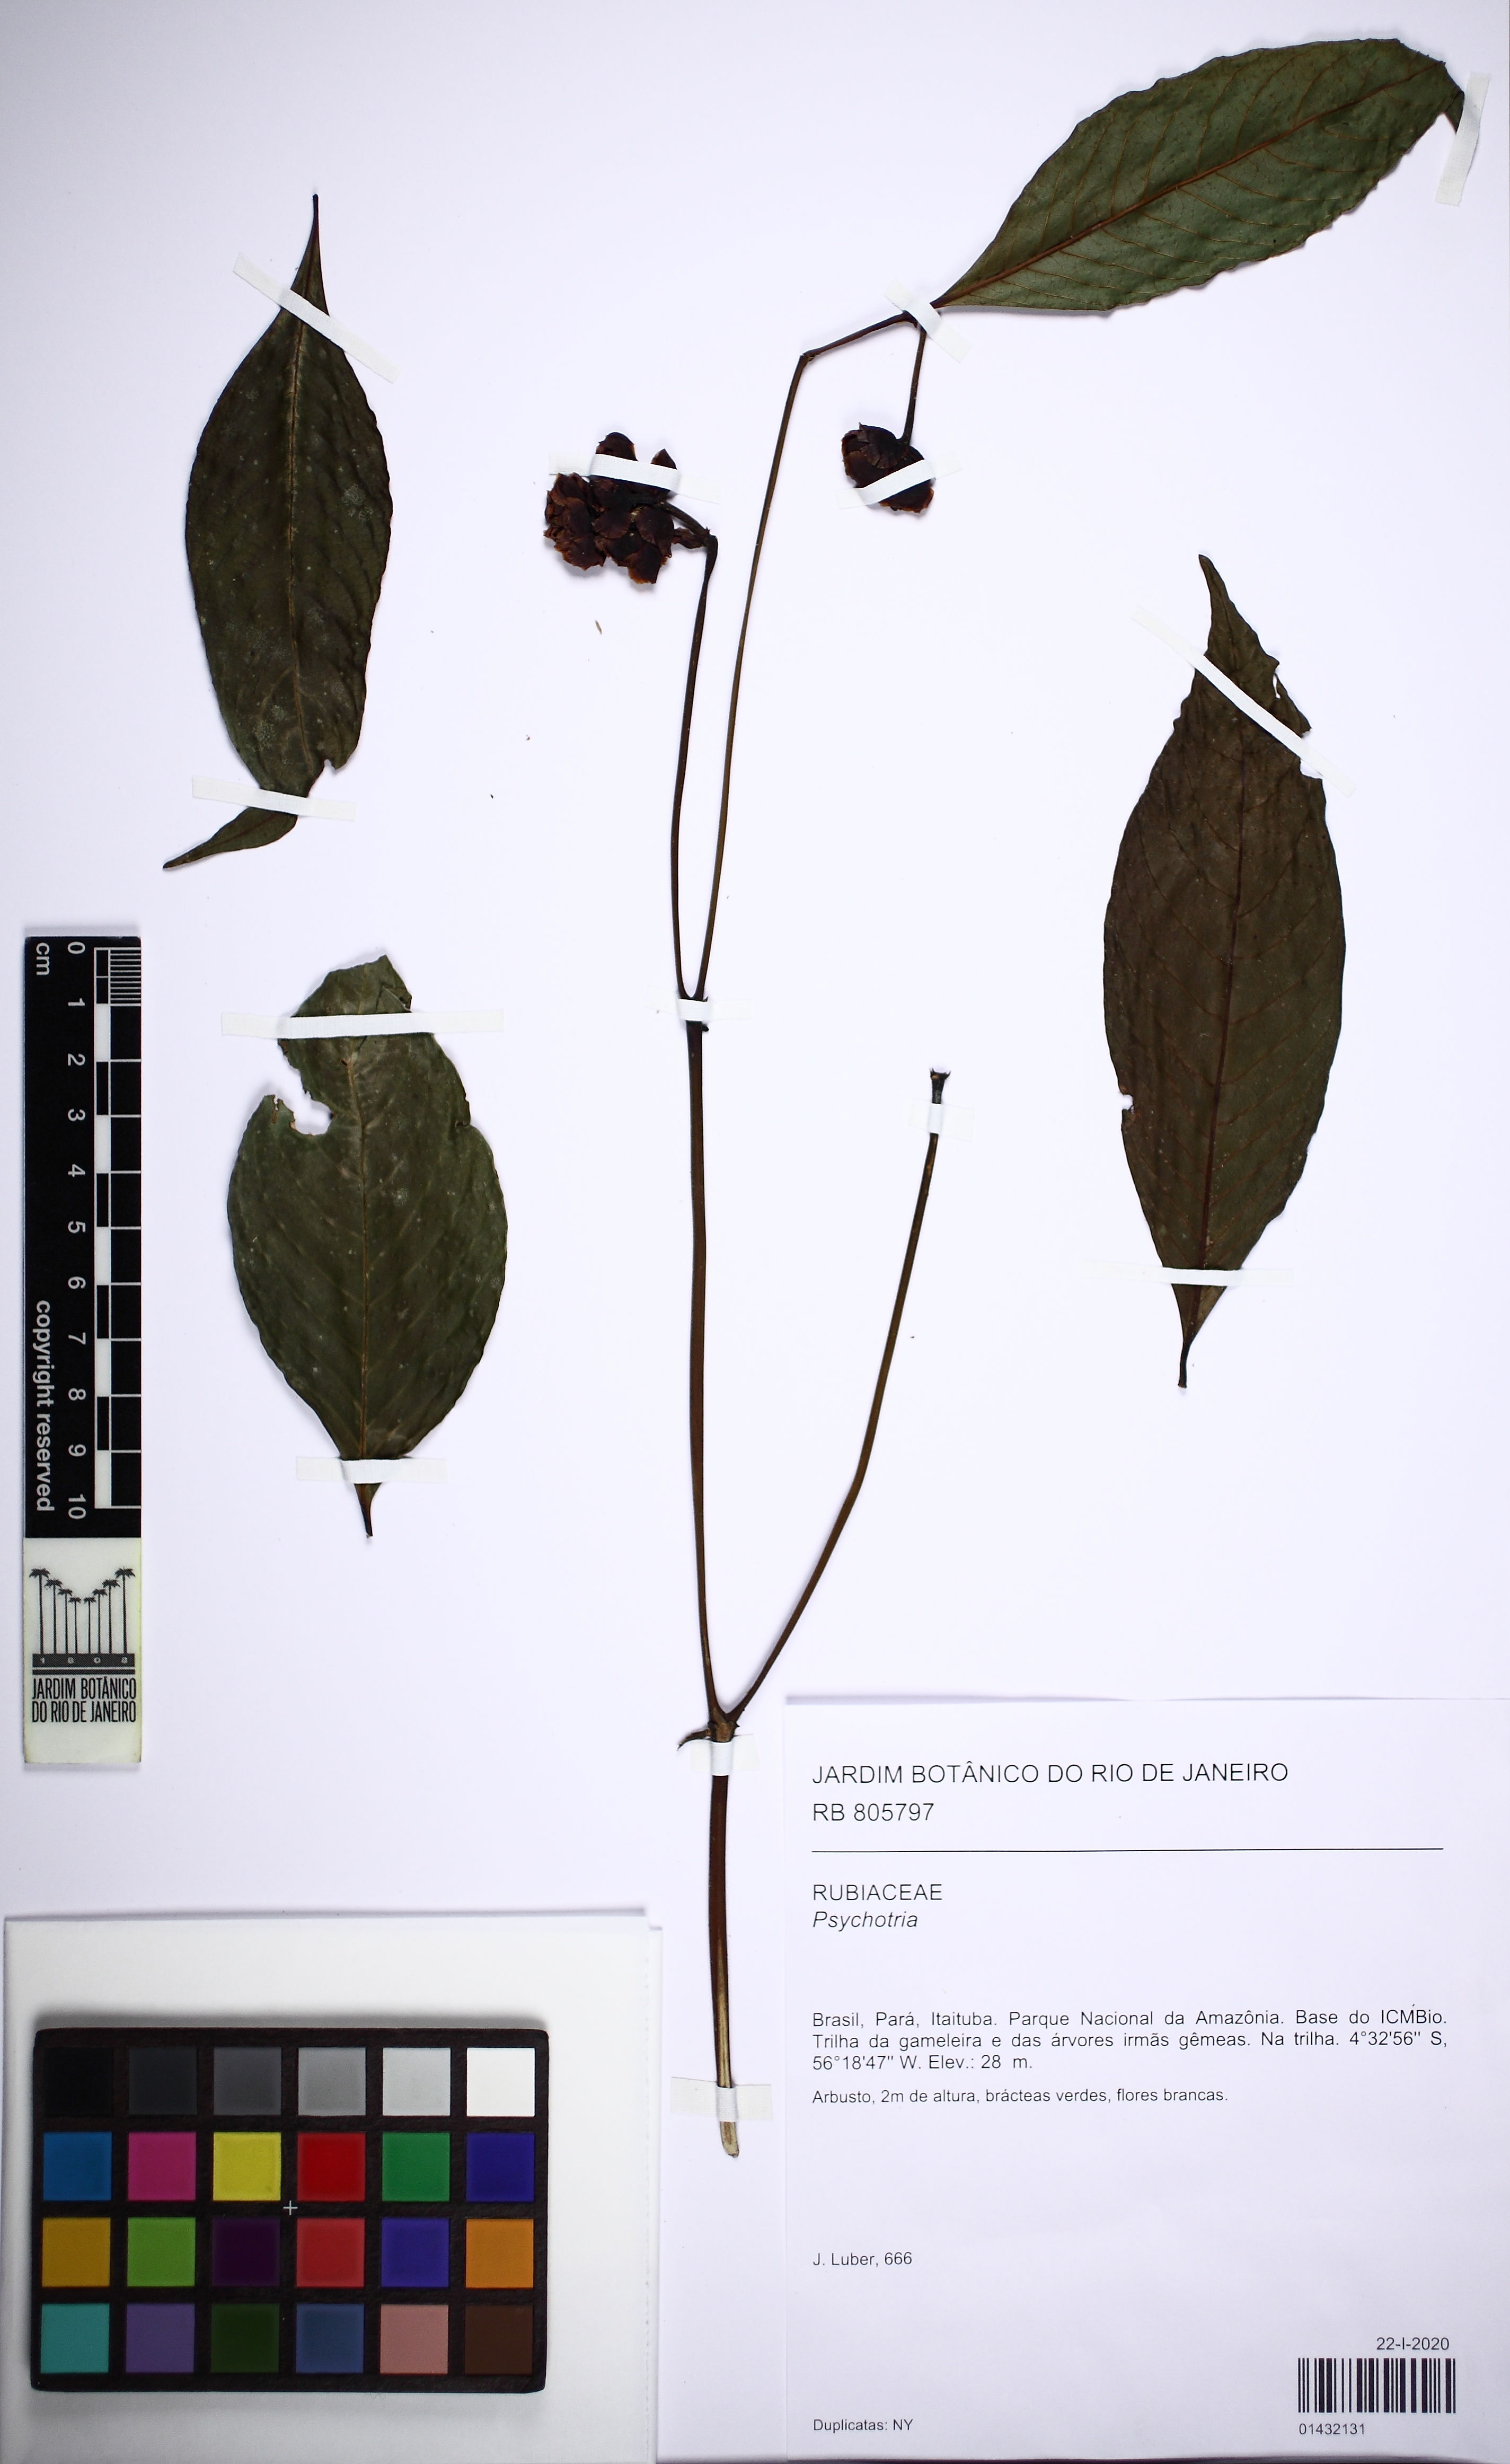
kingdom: Plantae
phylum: Tracheophyta
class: Magnoliopsida
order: Gentianales
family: Rubiaceae
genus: Psychotria
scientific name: Psychotria
